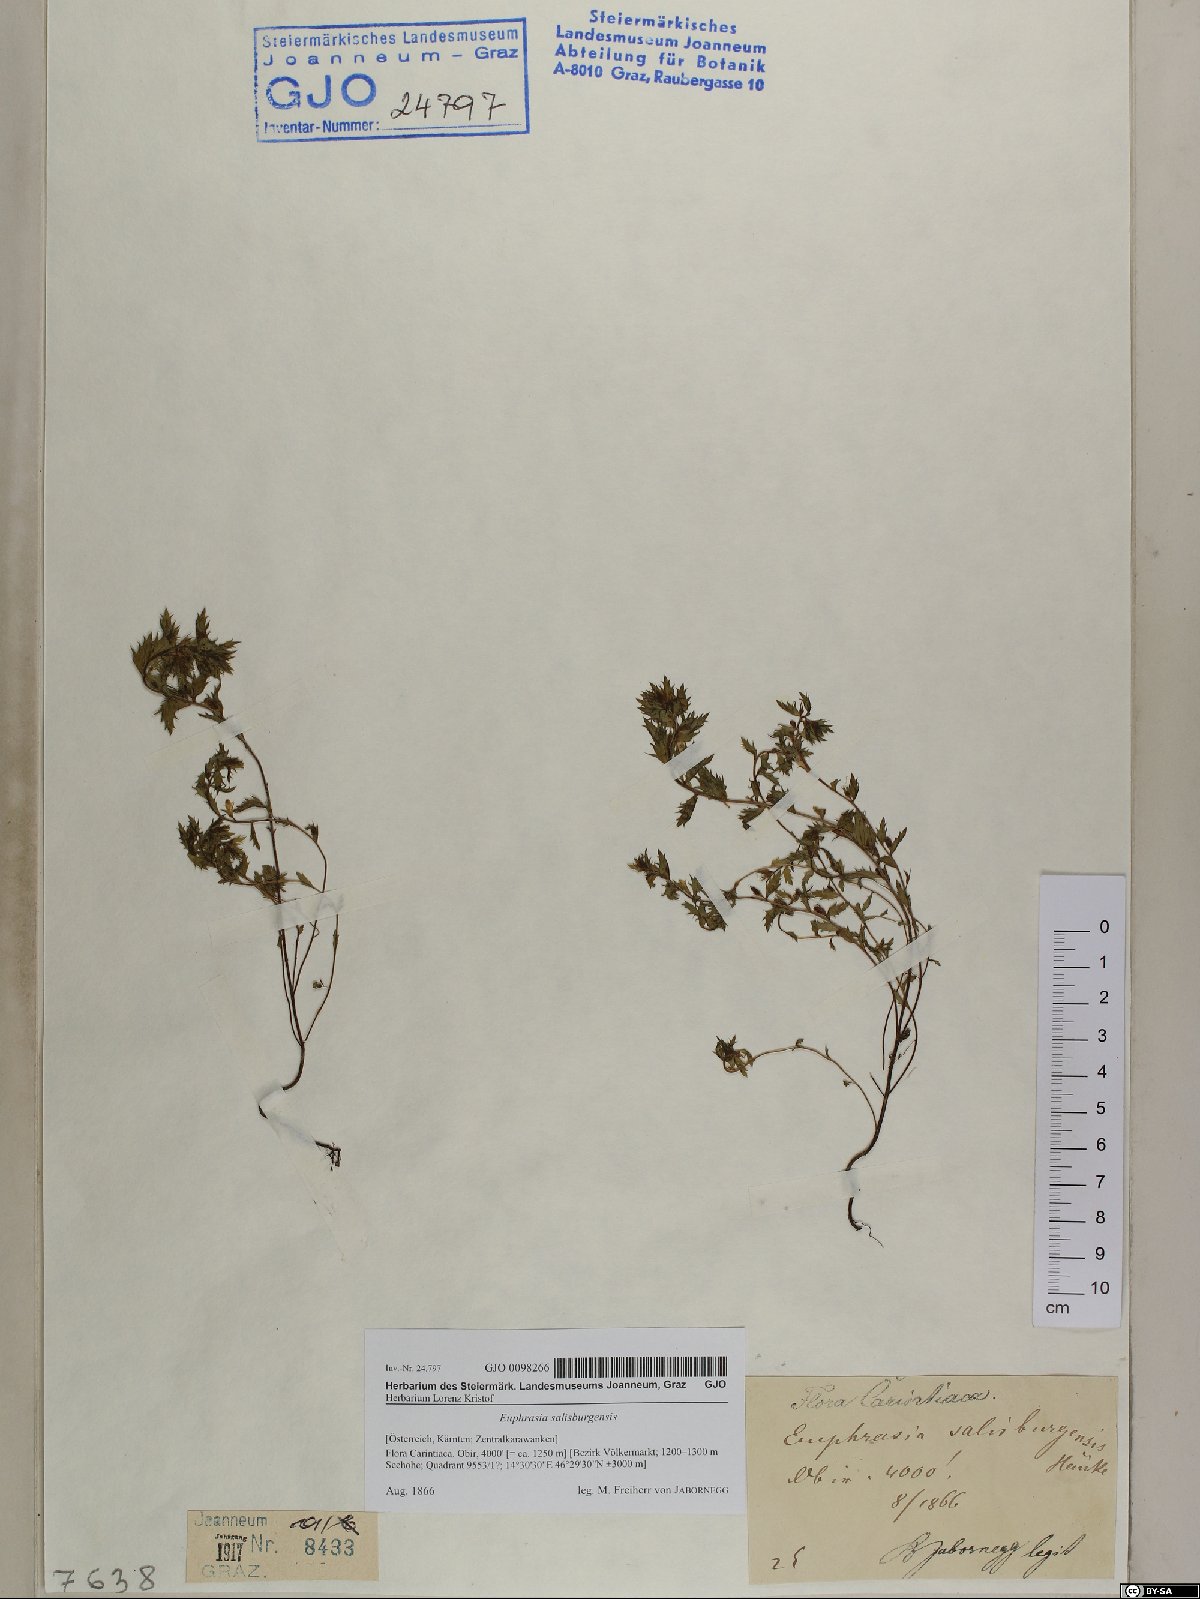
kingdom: Plantae
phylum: Tracheophyta
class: Magnoliopsida
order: Lamiales
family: Orobanchaceae
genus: Euphrasia
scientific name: Euphrasia salisburgensis
